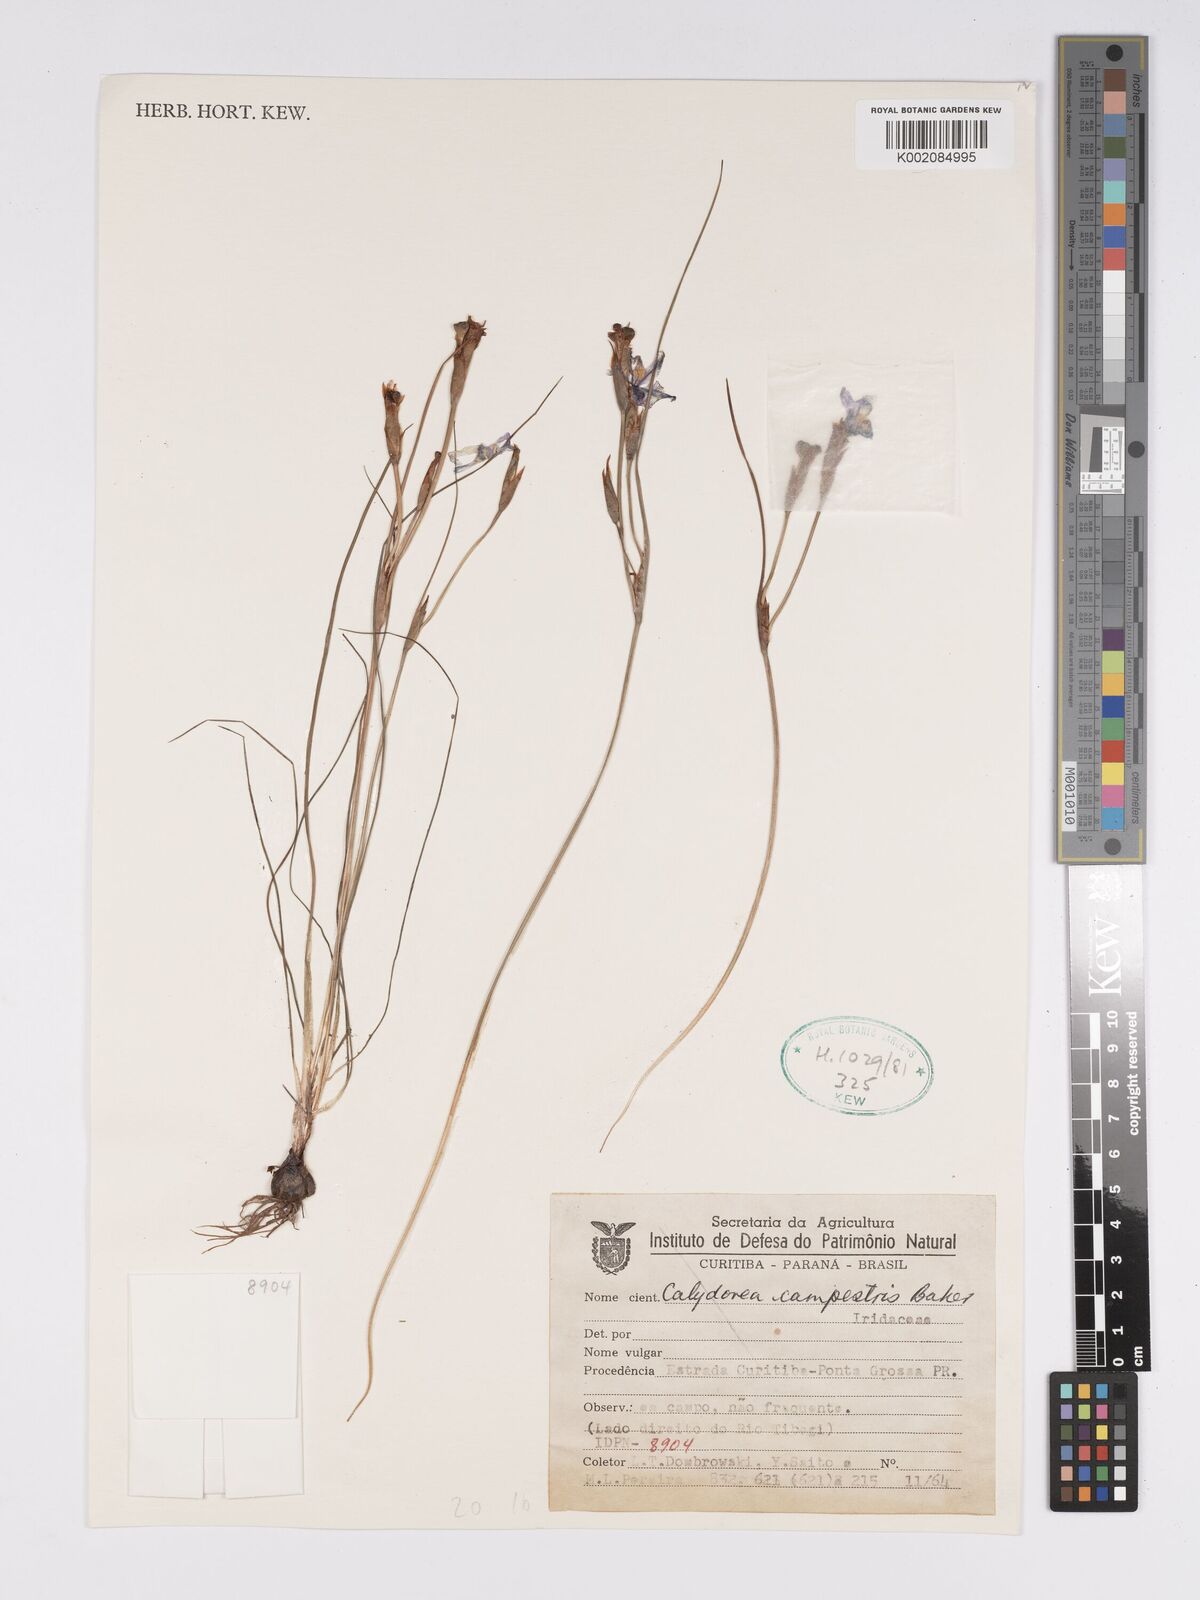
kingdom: Plantae
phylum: Tracheophyta
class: Liliopsida
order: Asparagales
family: Iridaceae
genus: Calydorea
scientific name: Calydorea campestris
